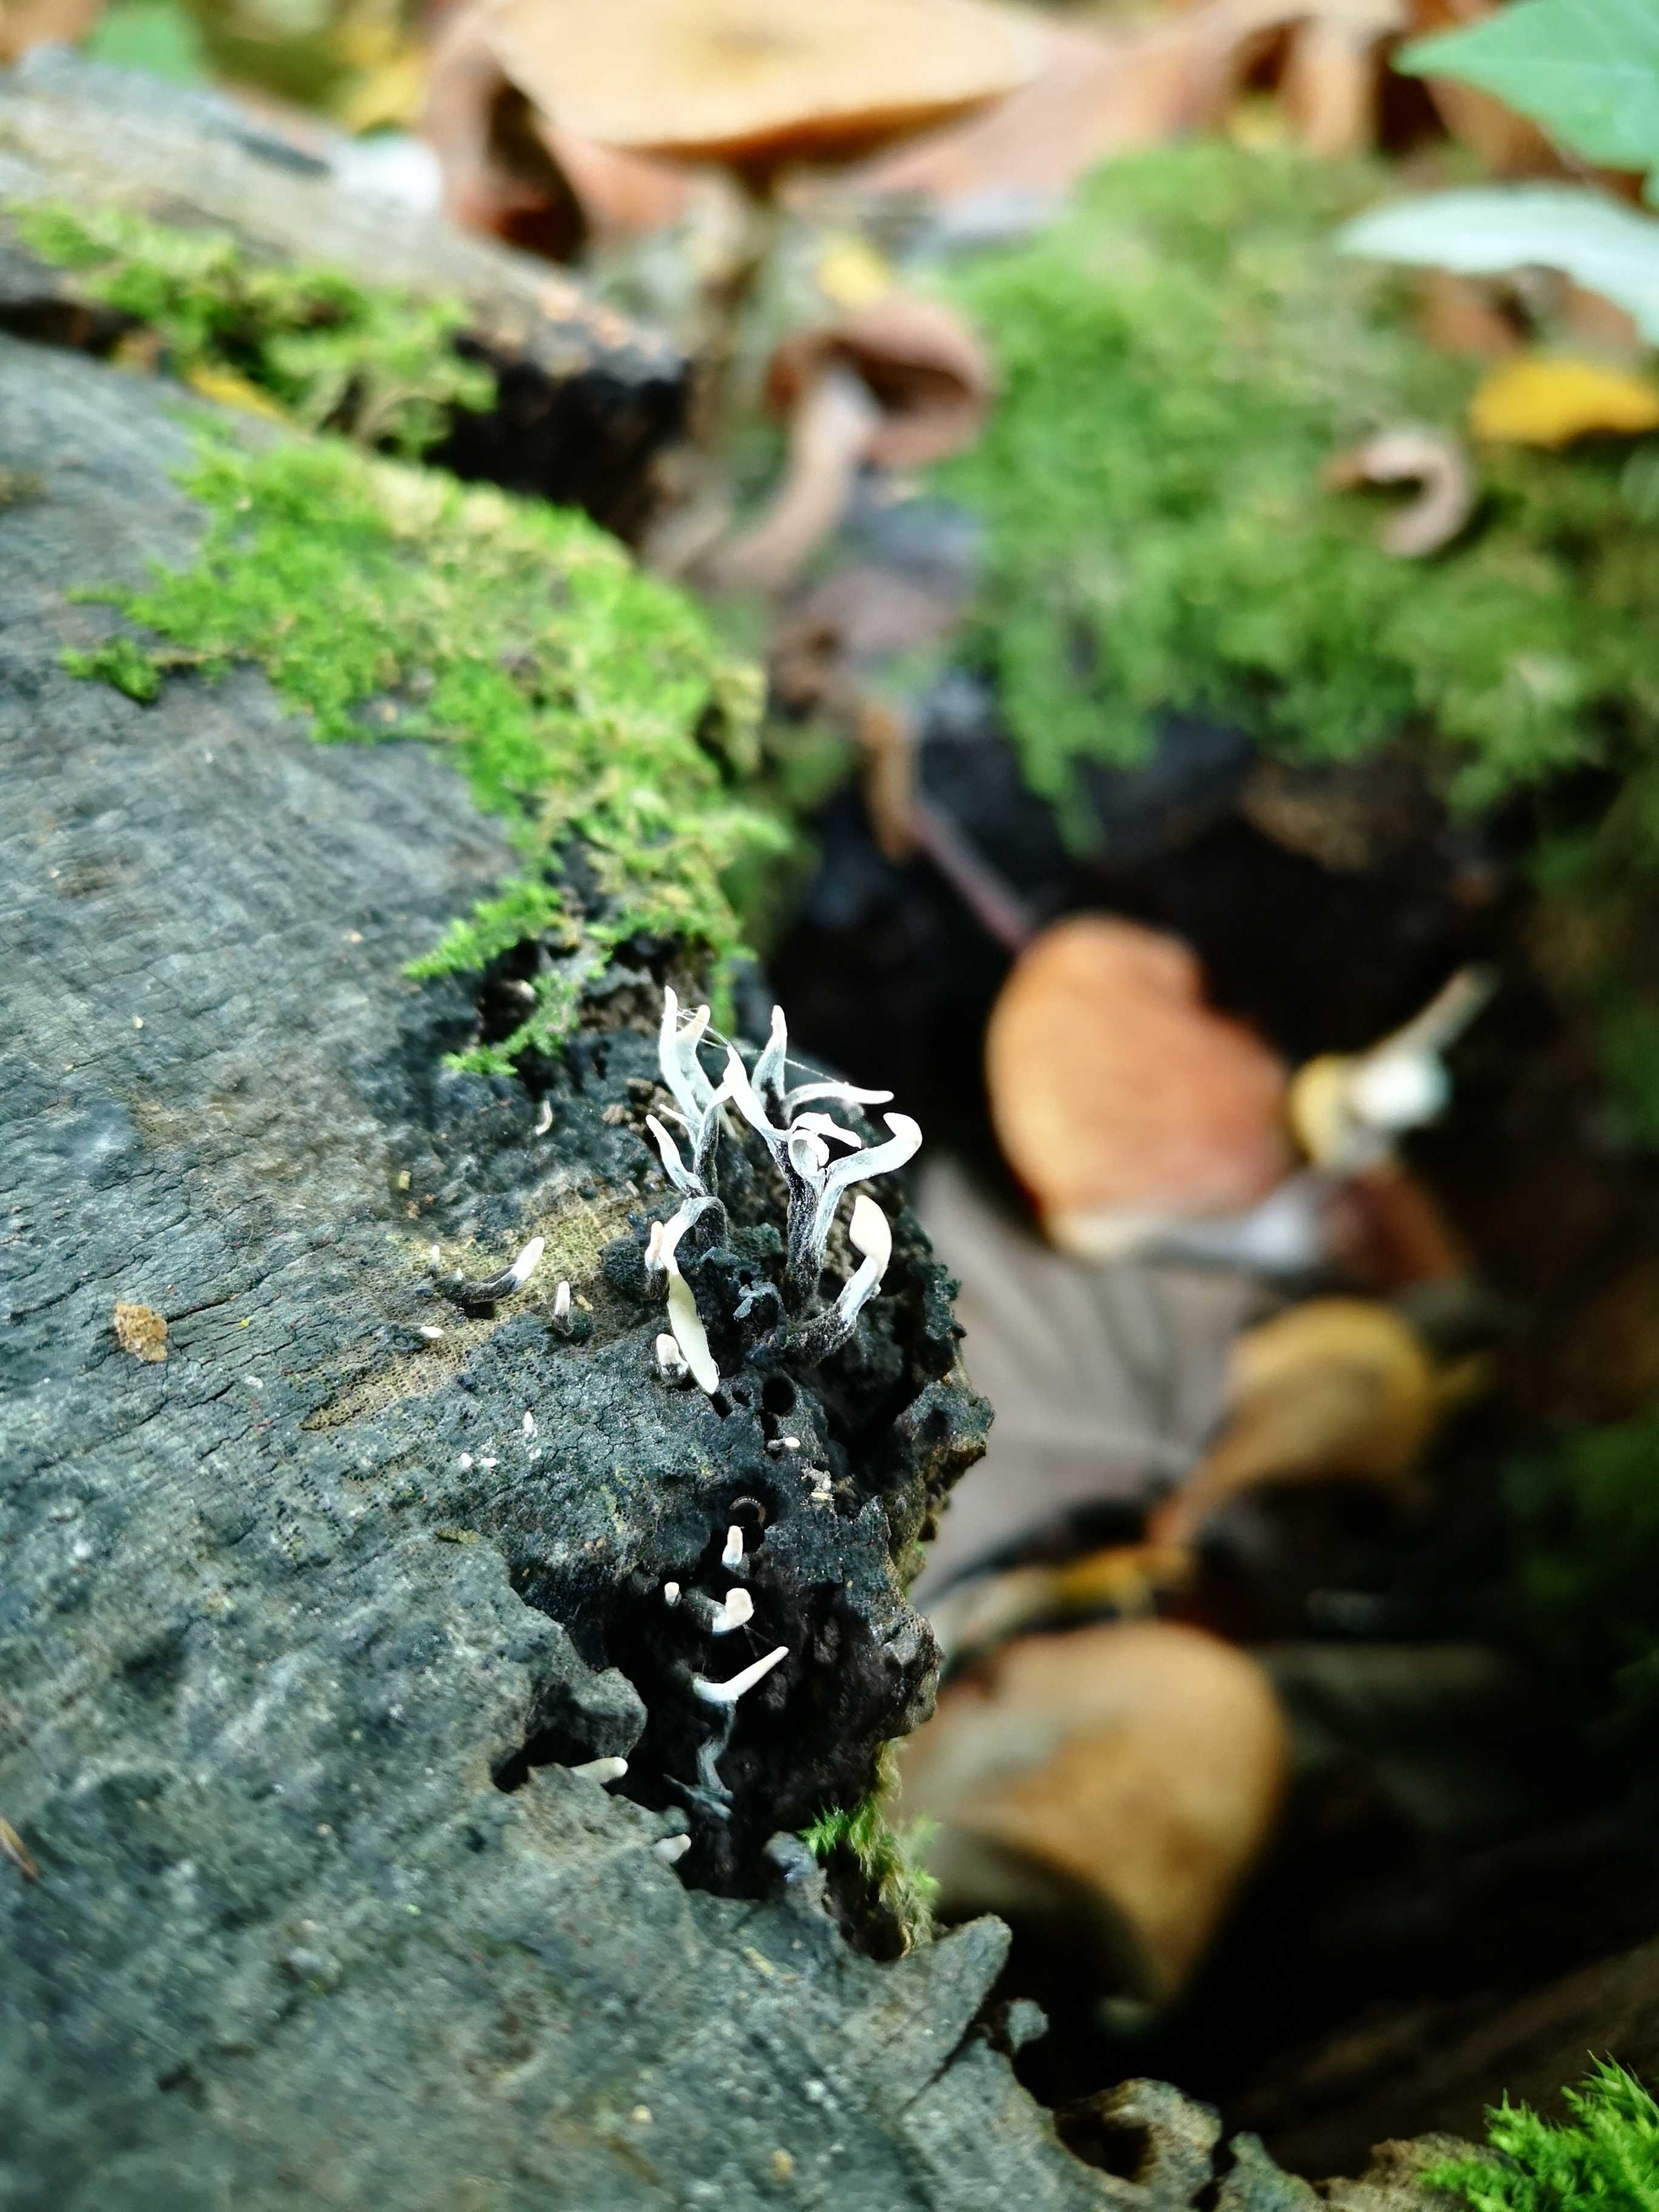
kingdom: Fungi
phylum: Ascomycota
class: Sordariomycetes
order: Xylariales
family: Xylariaceae
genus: Xylaria
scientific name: Xylaria hypoxylon
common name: grenet stødsvamp
